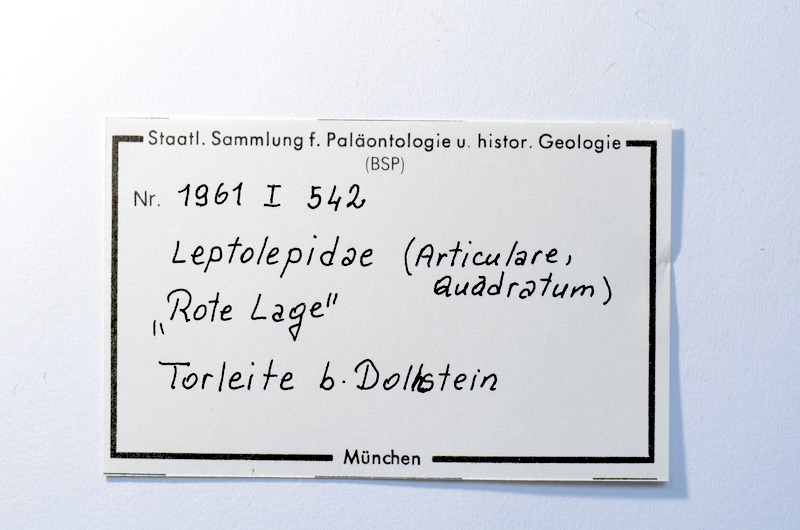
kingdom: Animalia
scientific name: Animalia
